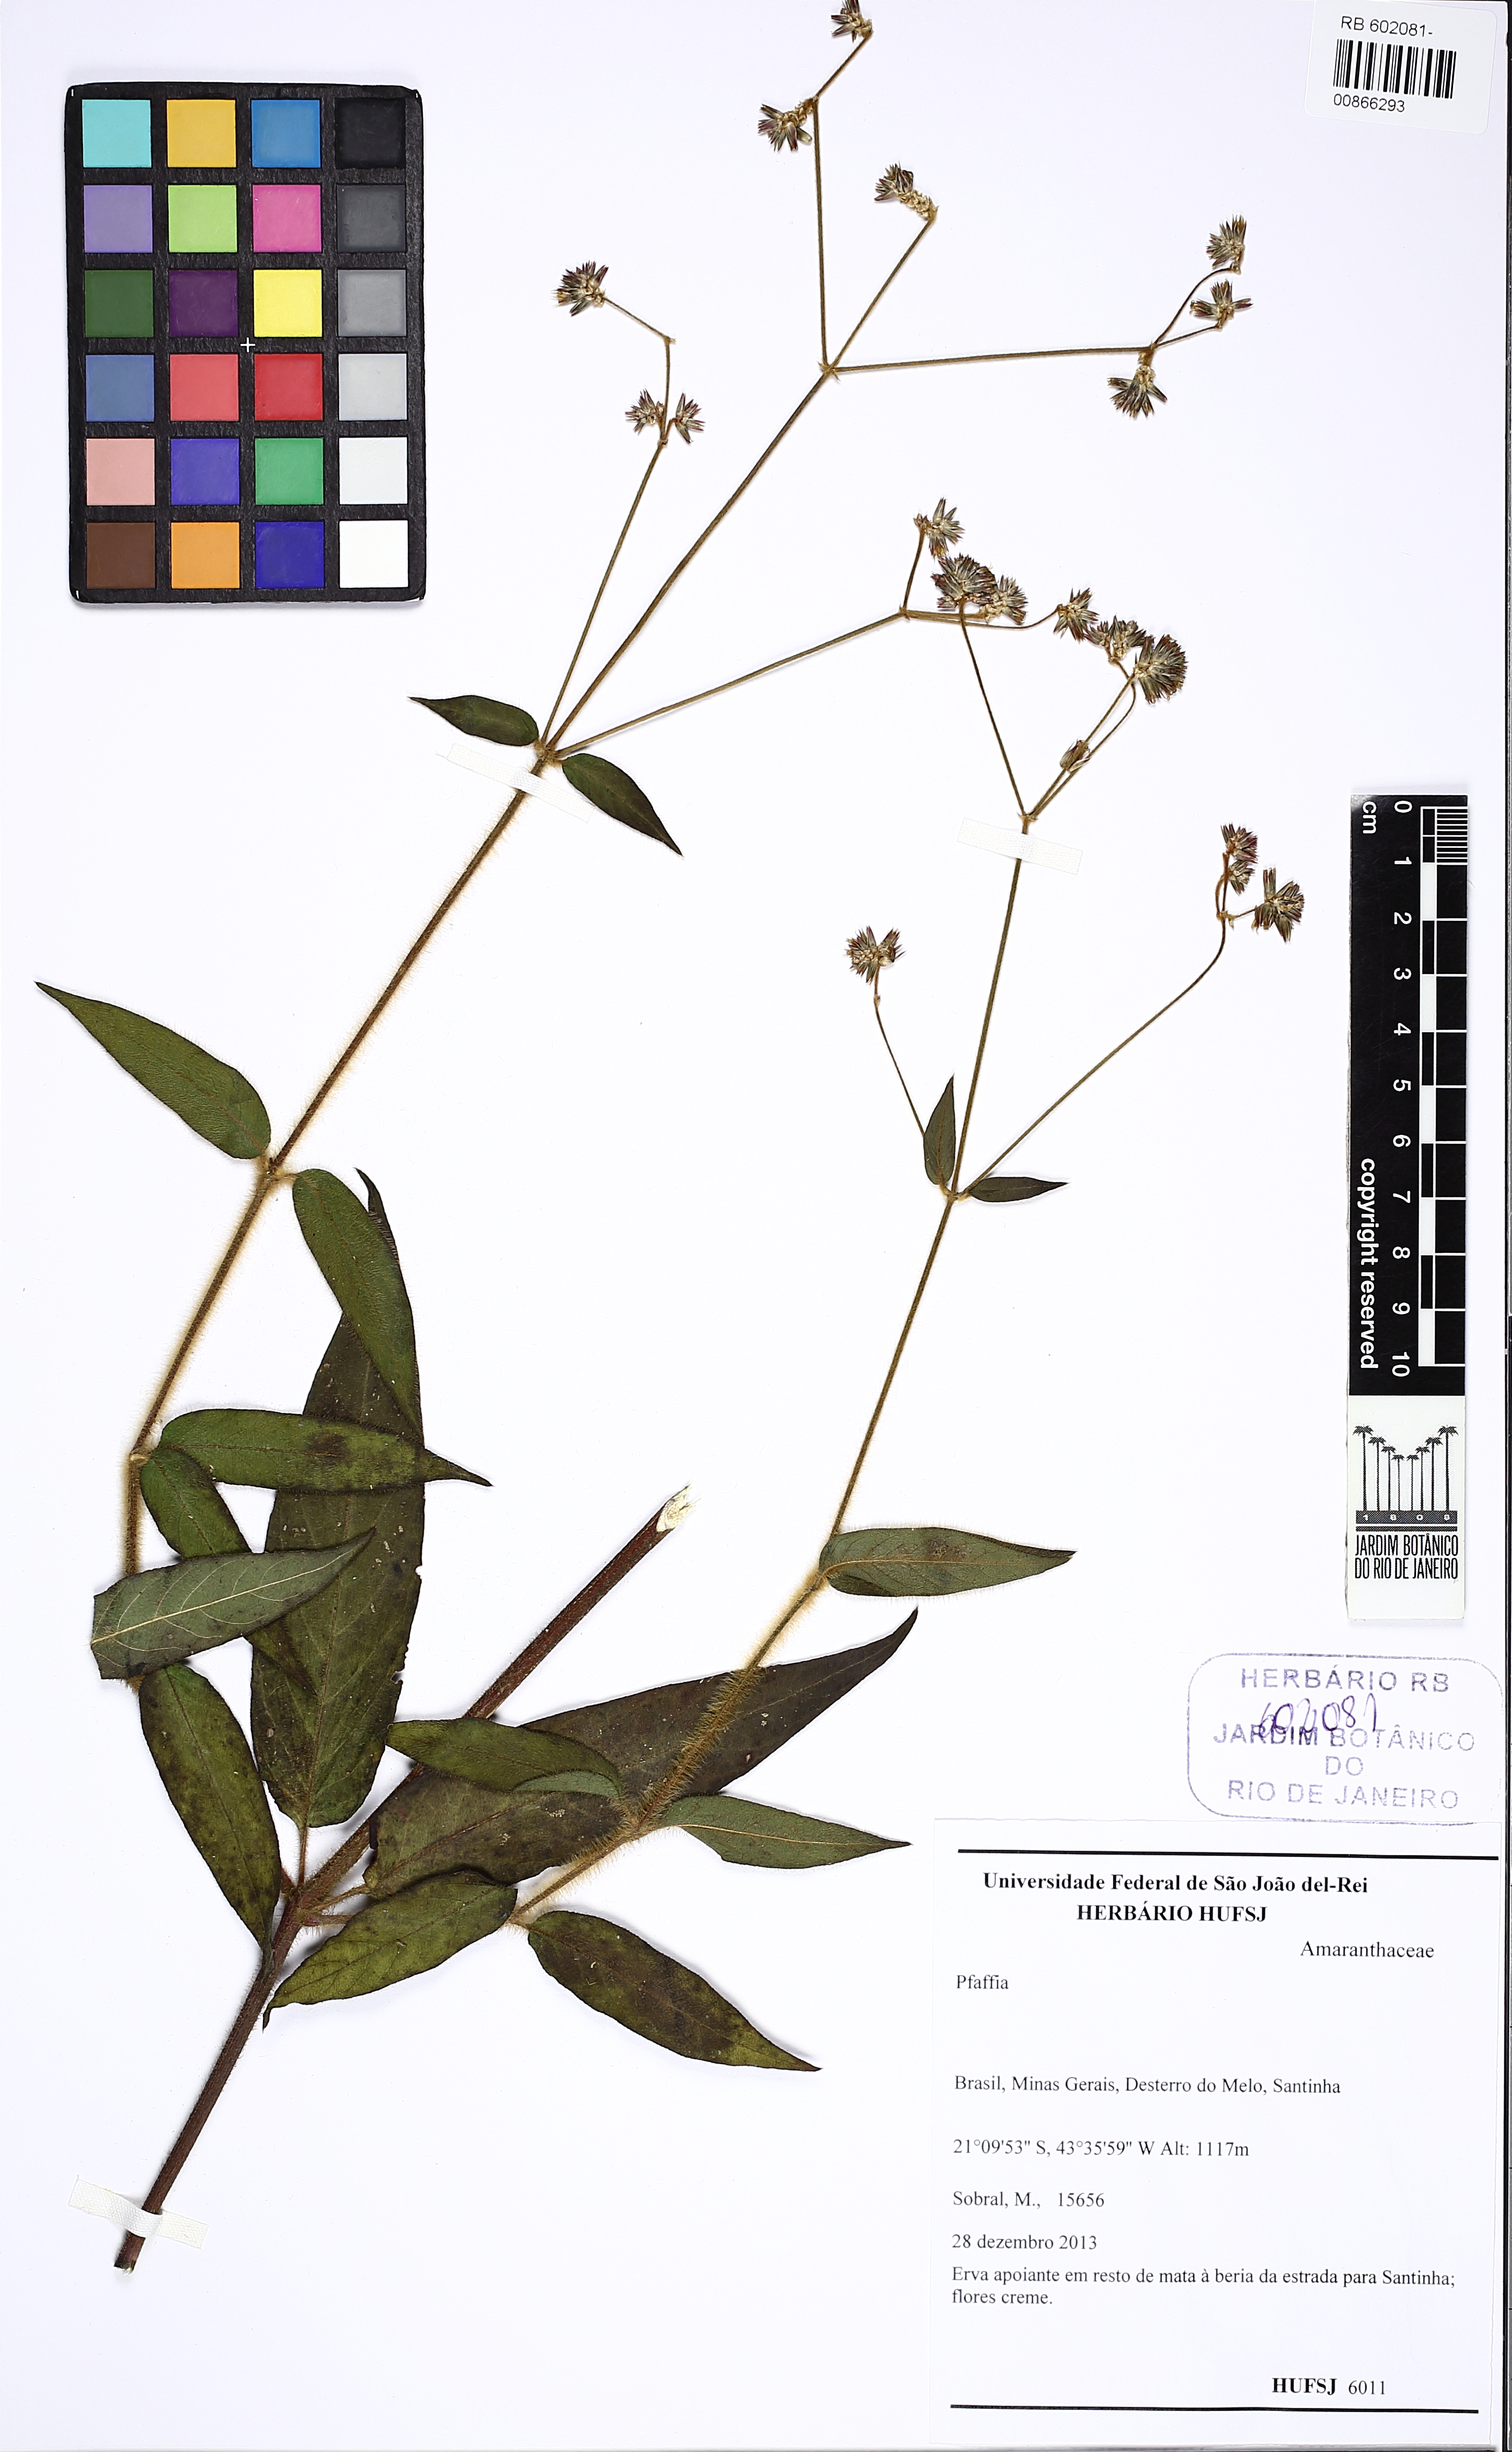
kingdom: Plantae
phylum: Tracheophyta
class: Magnoliopsida
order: Caryophyllales
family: Amaranthaceae
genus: Pfaffia
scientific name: Pfaffia
